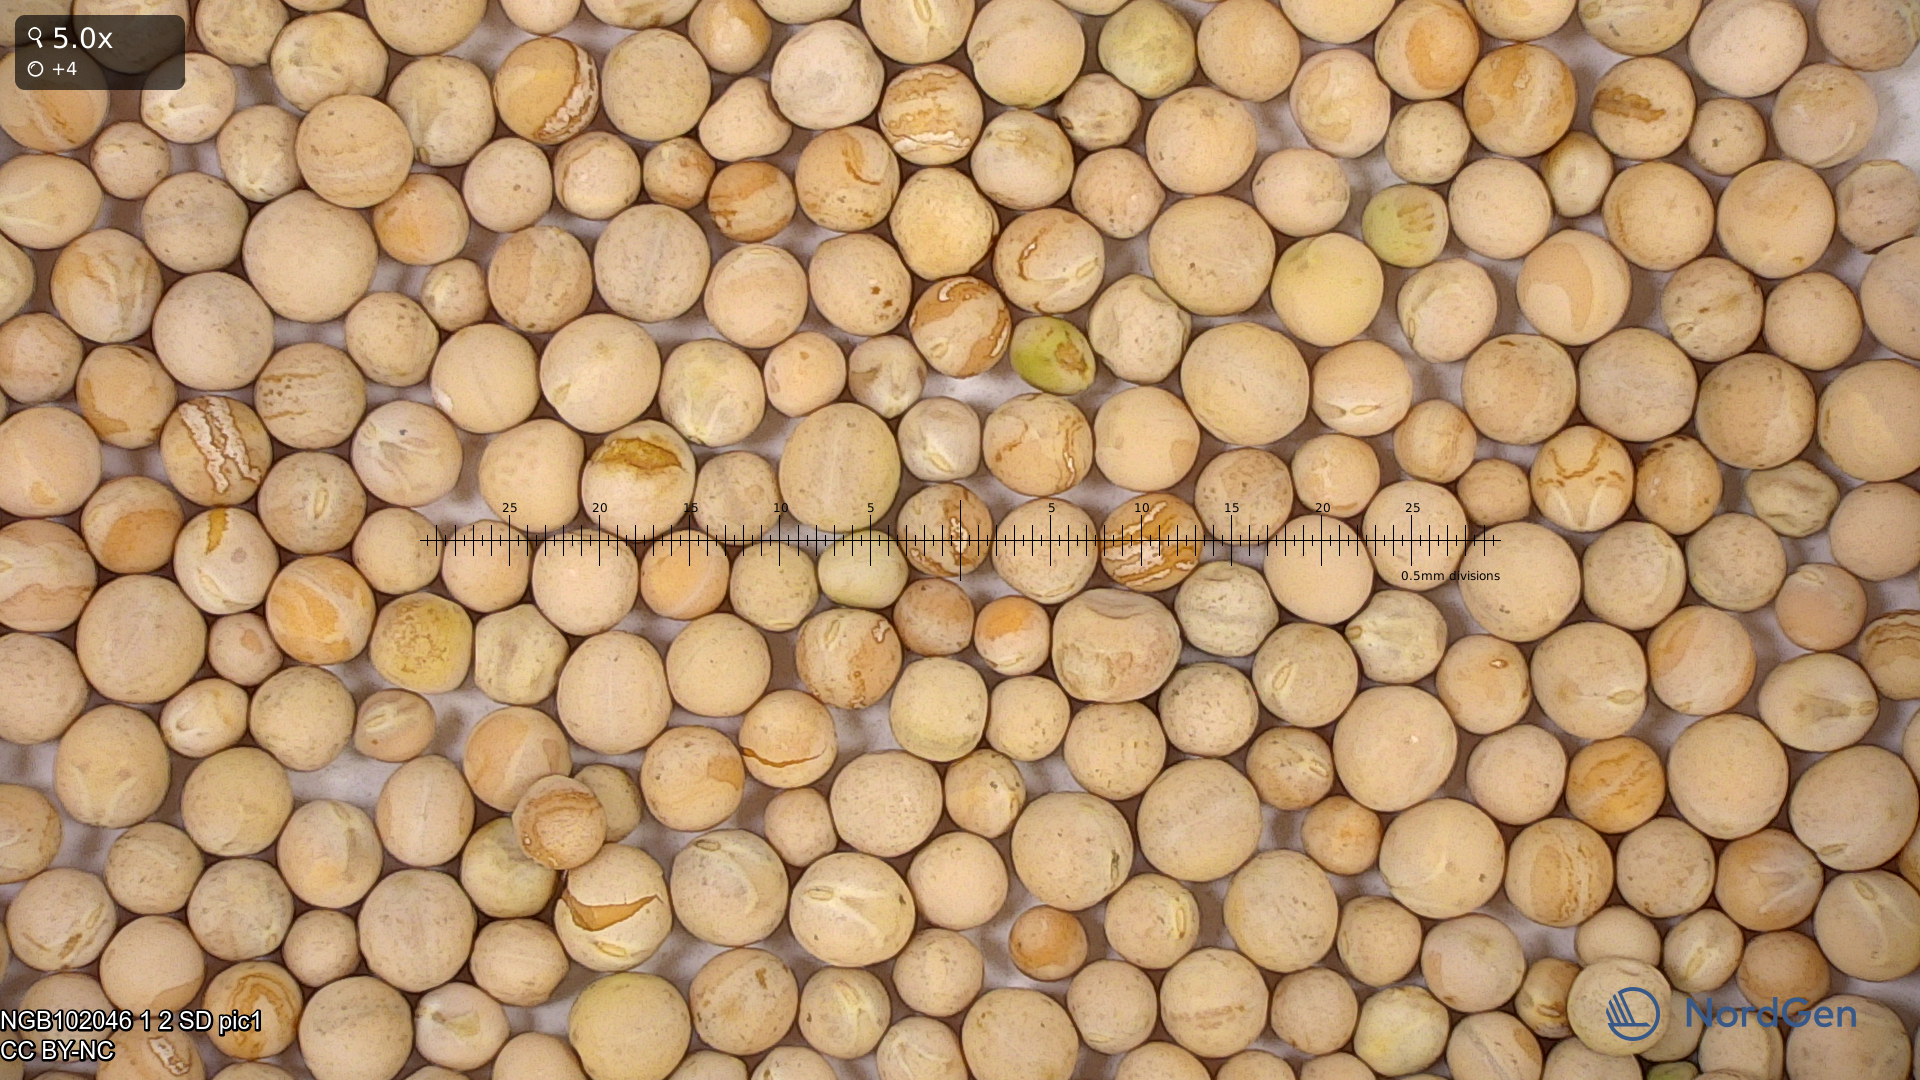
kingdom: Plantae
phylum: Tracheophyta
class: Magnoliopsida
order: Fabales
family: Fabaceae
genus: Lathyrus
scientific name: Lathyrus oleraceus
